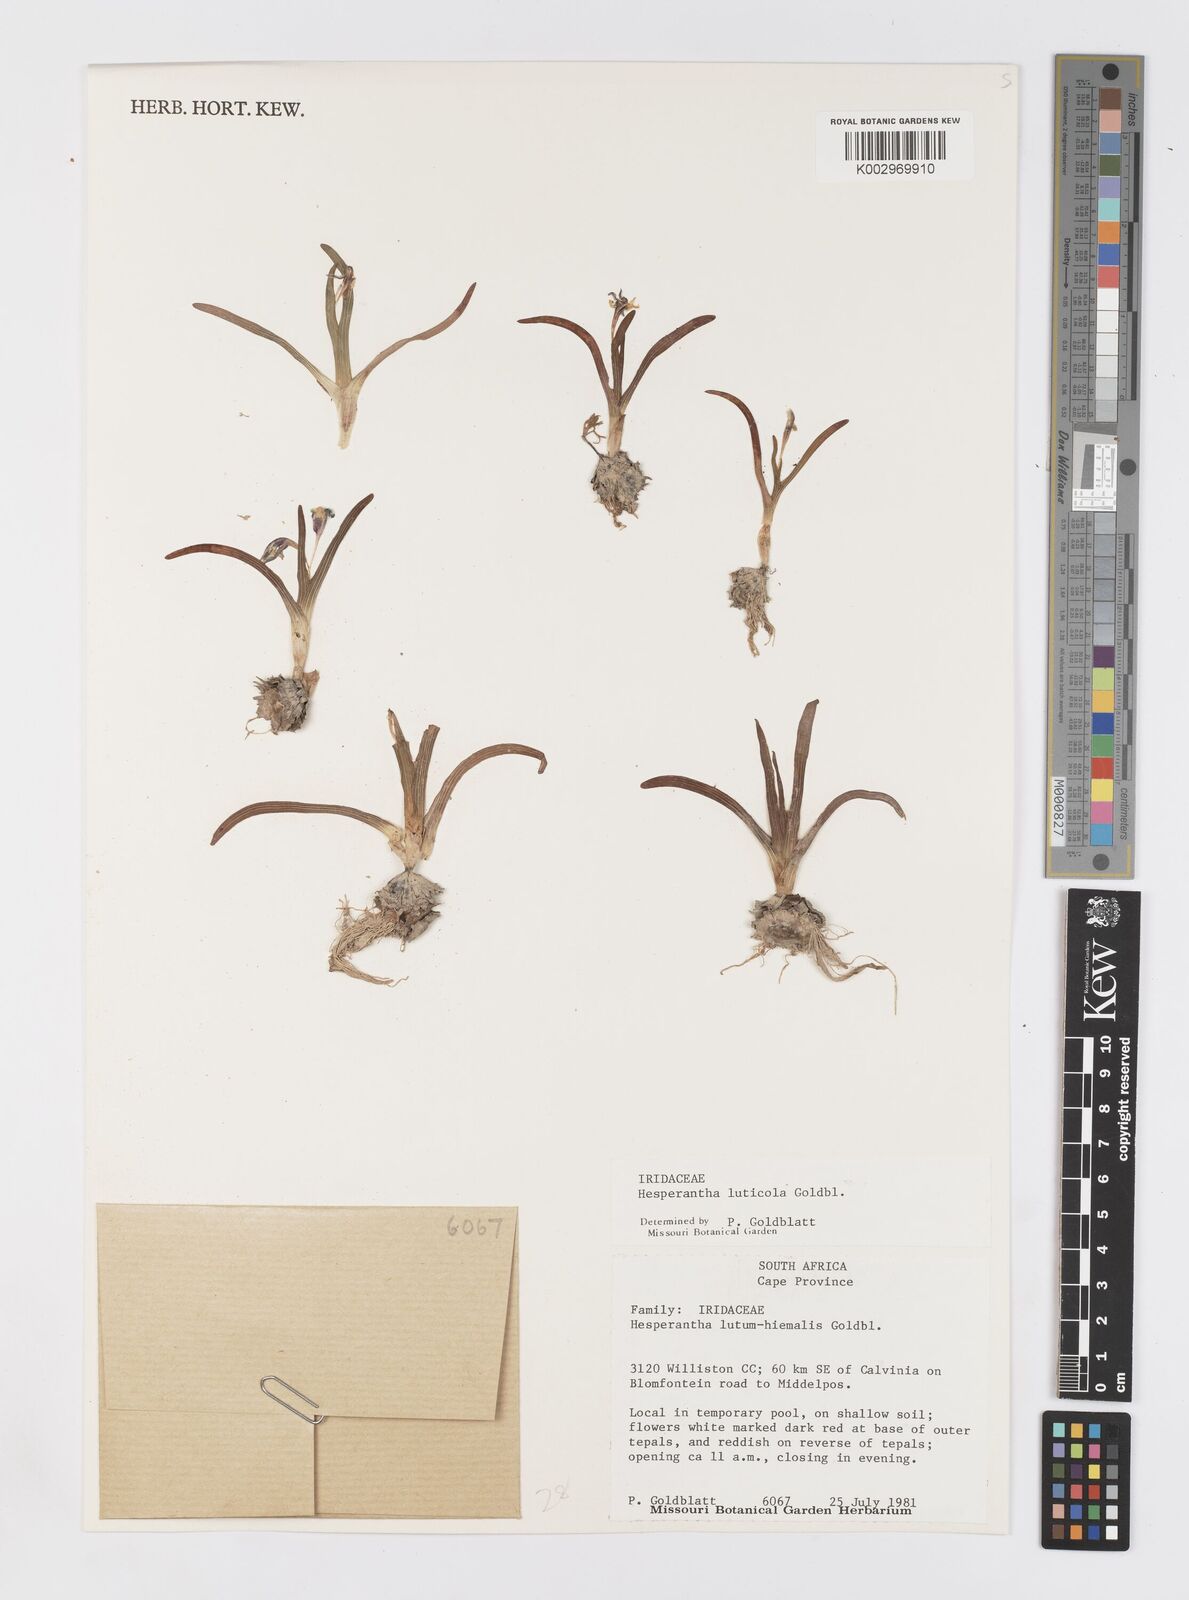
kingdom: Plantae
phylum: Tracheophyta
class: Liliopsida
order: Asparagales
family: Iridaceae
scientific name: Iridaceae
